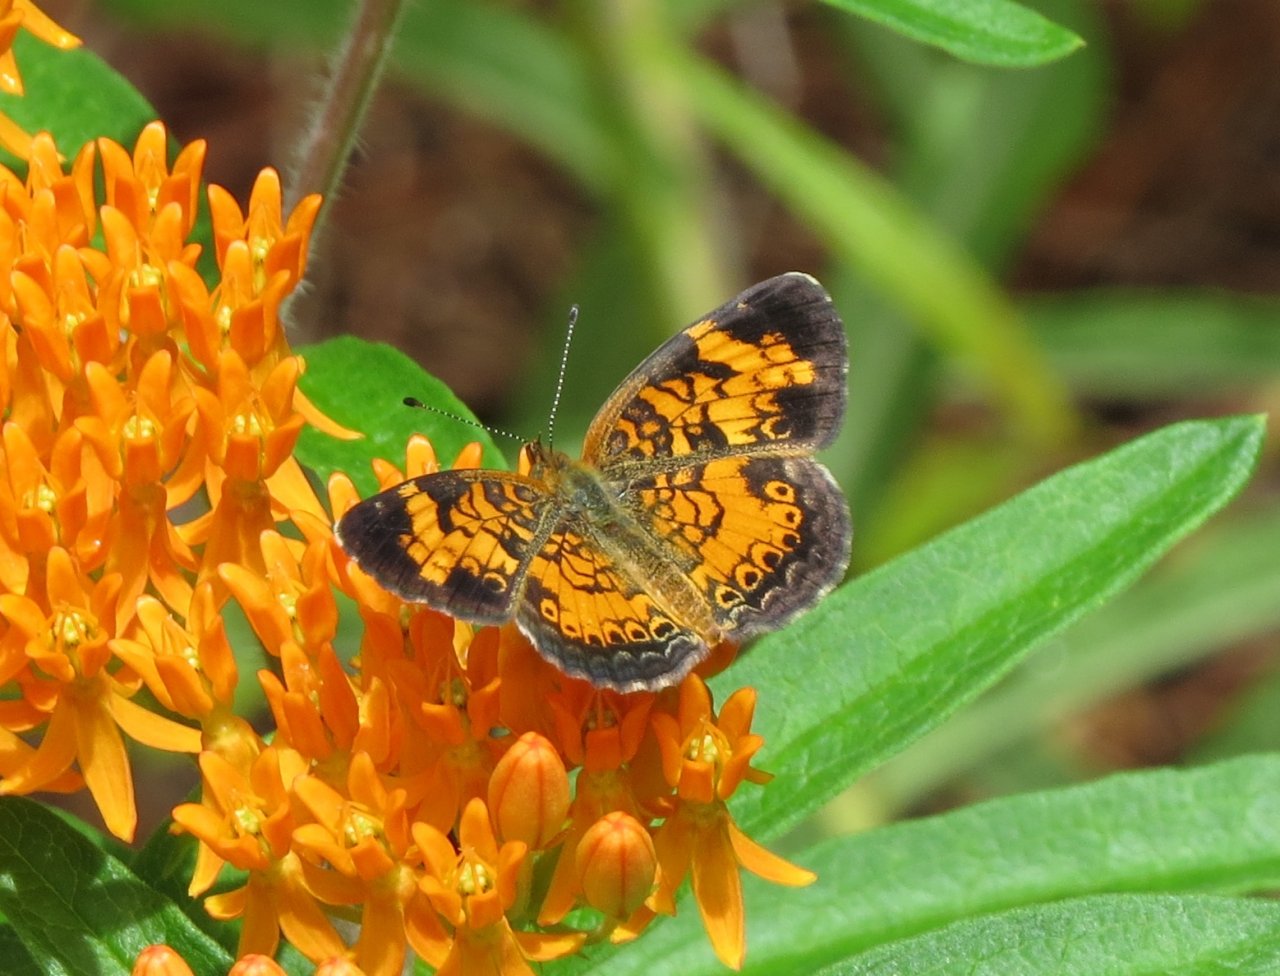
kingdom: Animalia
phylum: Arthropoda
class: Insecta
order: Lepidoptera
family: Nymphalidae
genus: Phyciodes
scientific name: Phyciodes tharos
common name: Pearl Crescent
